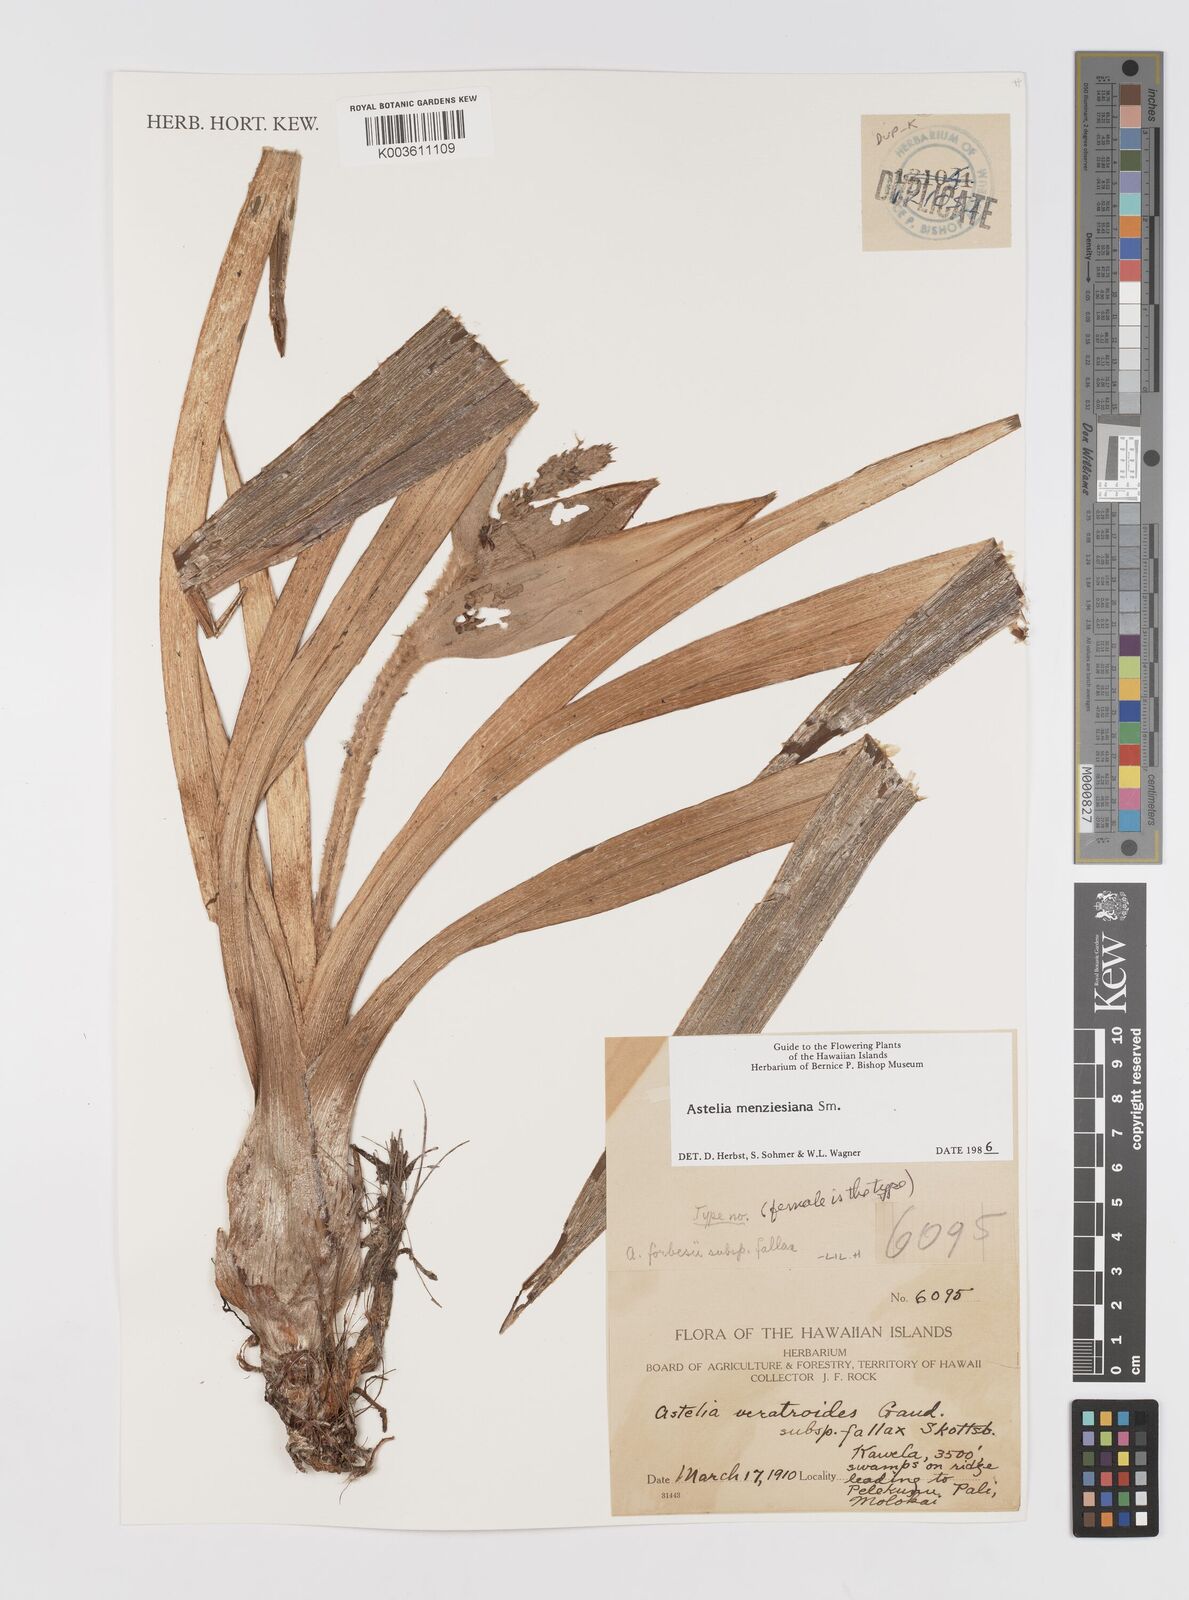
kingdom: Plantae
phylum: Tracheophyta
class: Liliopsida
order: Asparagales
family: Asteliaceae
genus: Astelia
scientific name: Astelia menziesiana
